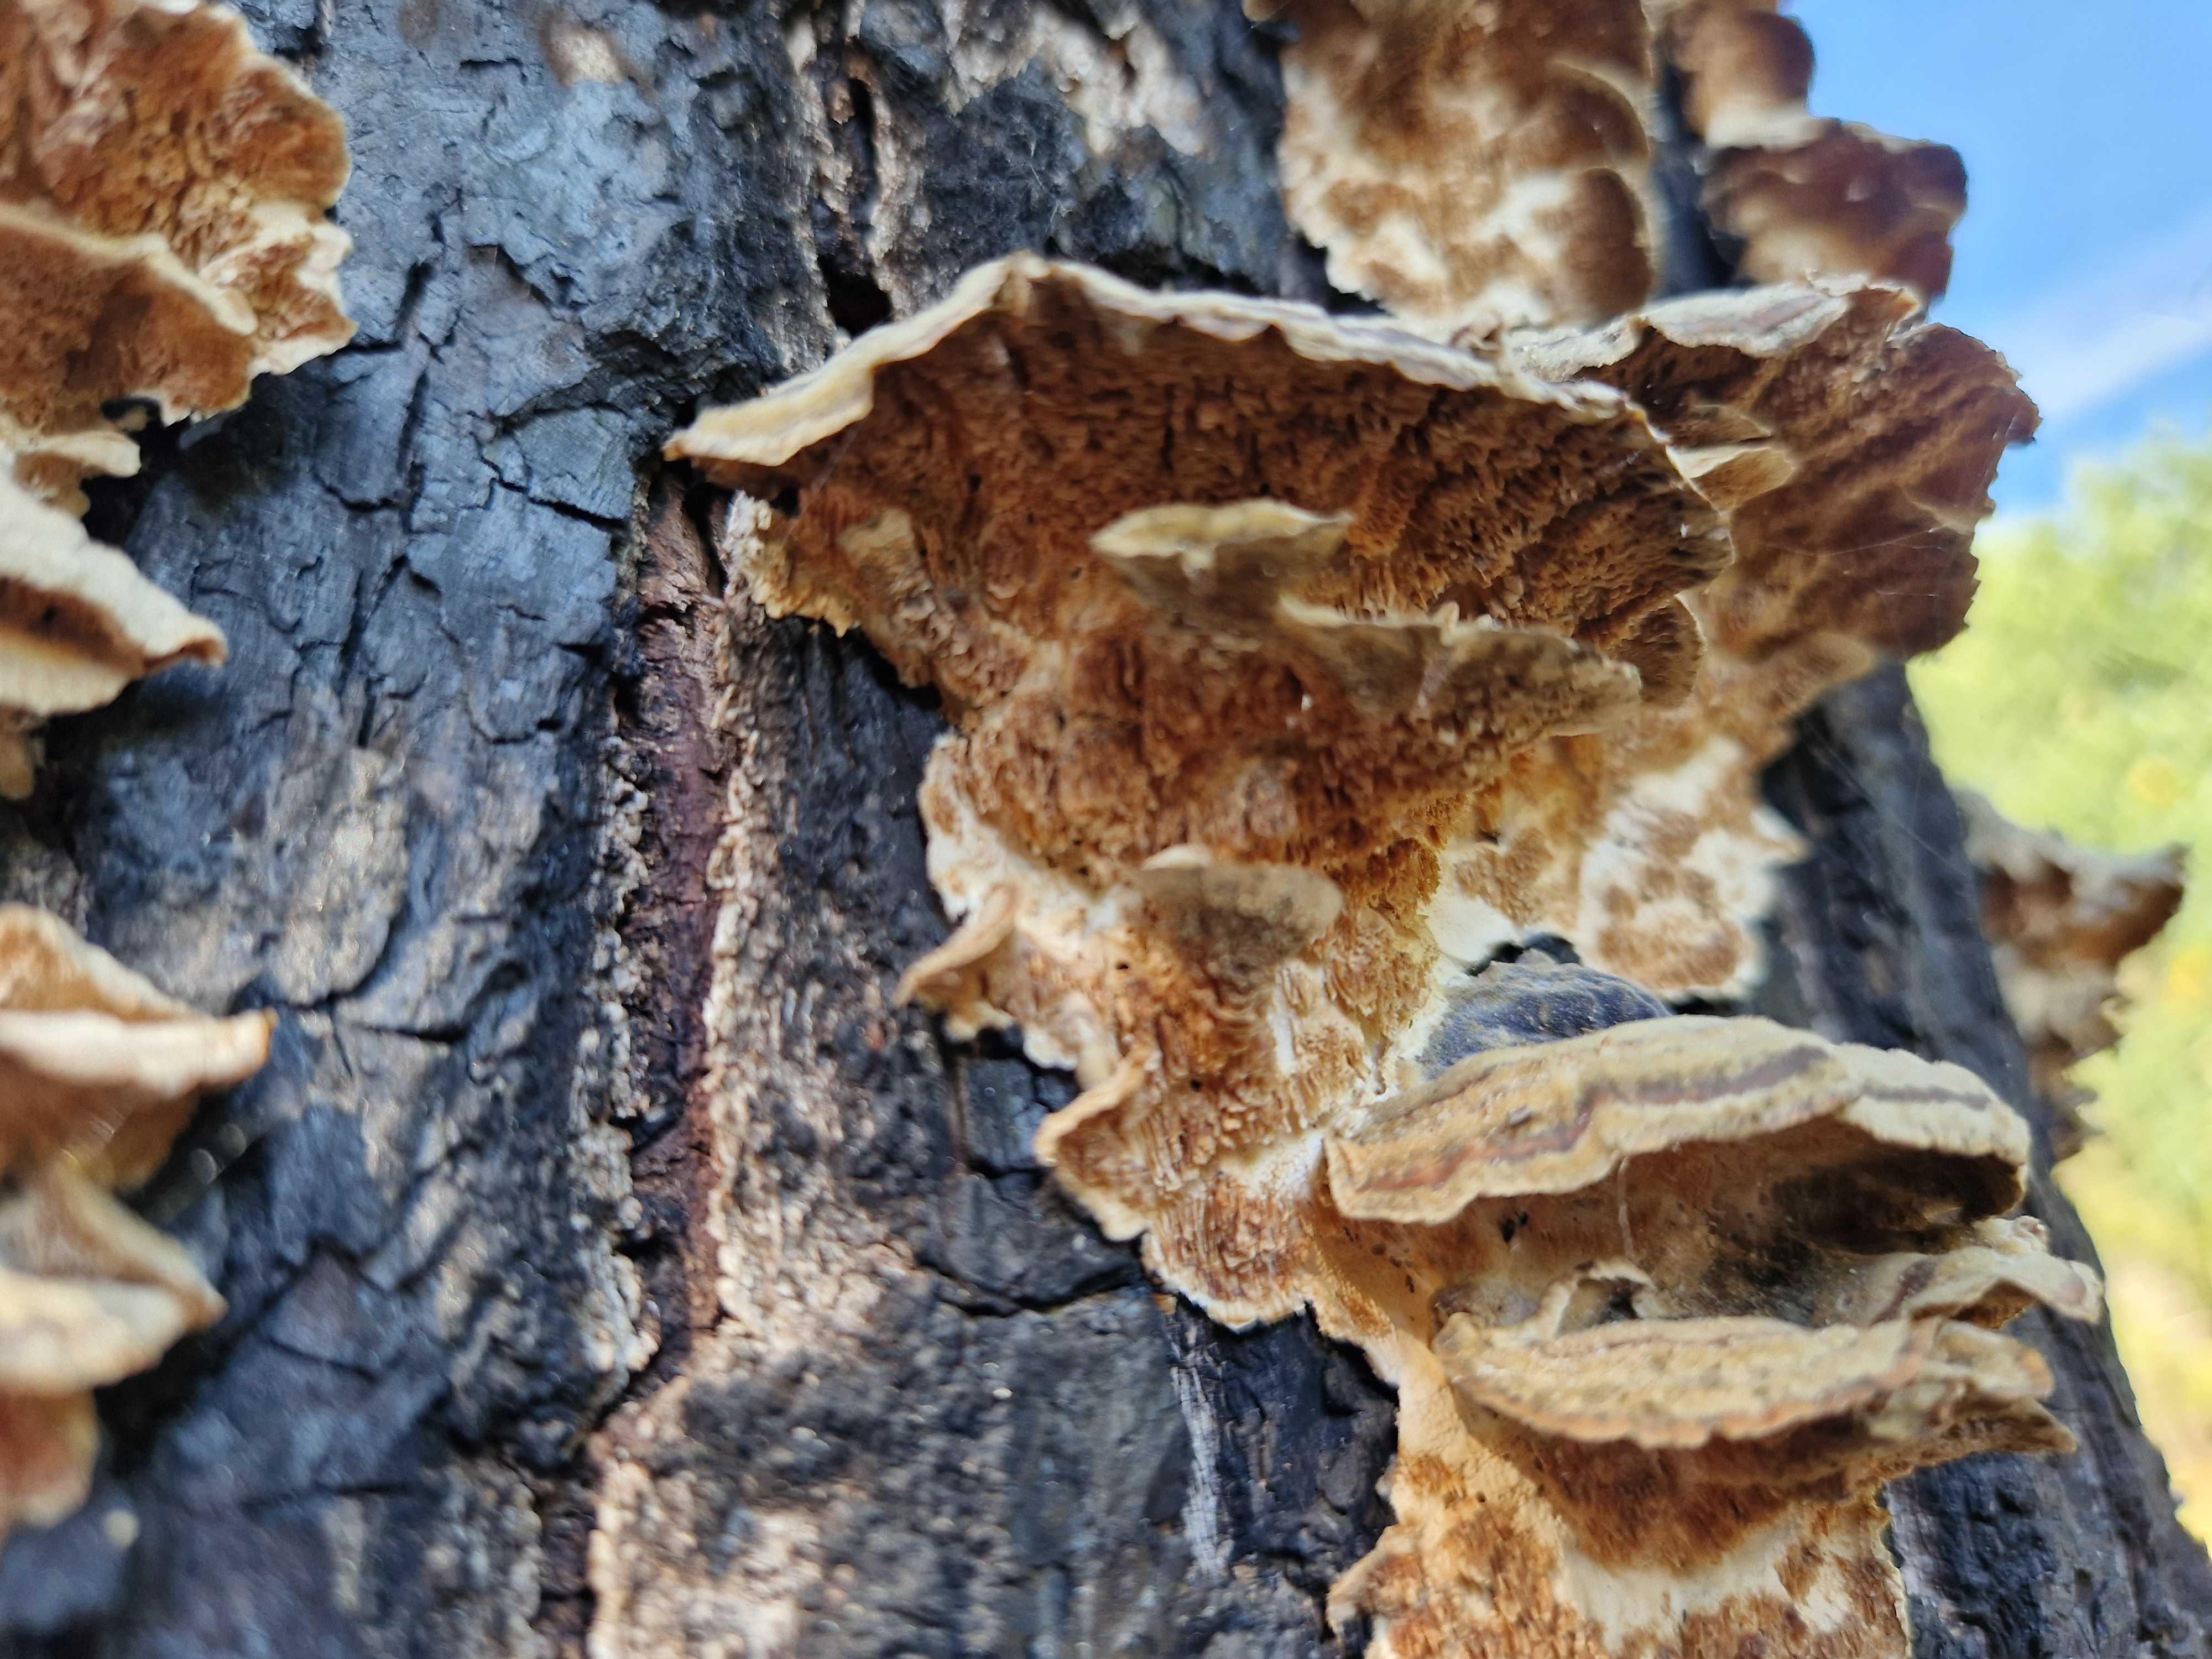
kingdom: Fungi
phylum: Basidiomycota
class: Agaricomycetes
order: Polyporales
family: Polyporaceae
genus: Trametes
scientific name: Trametes versicolor
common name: broget læderporesvamp
